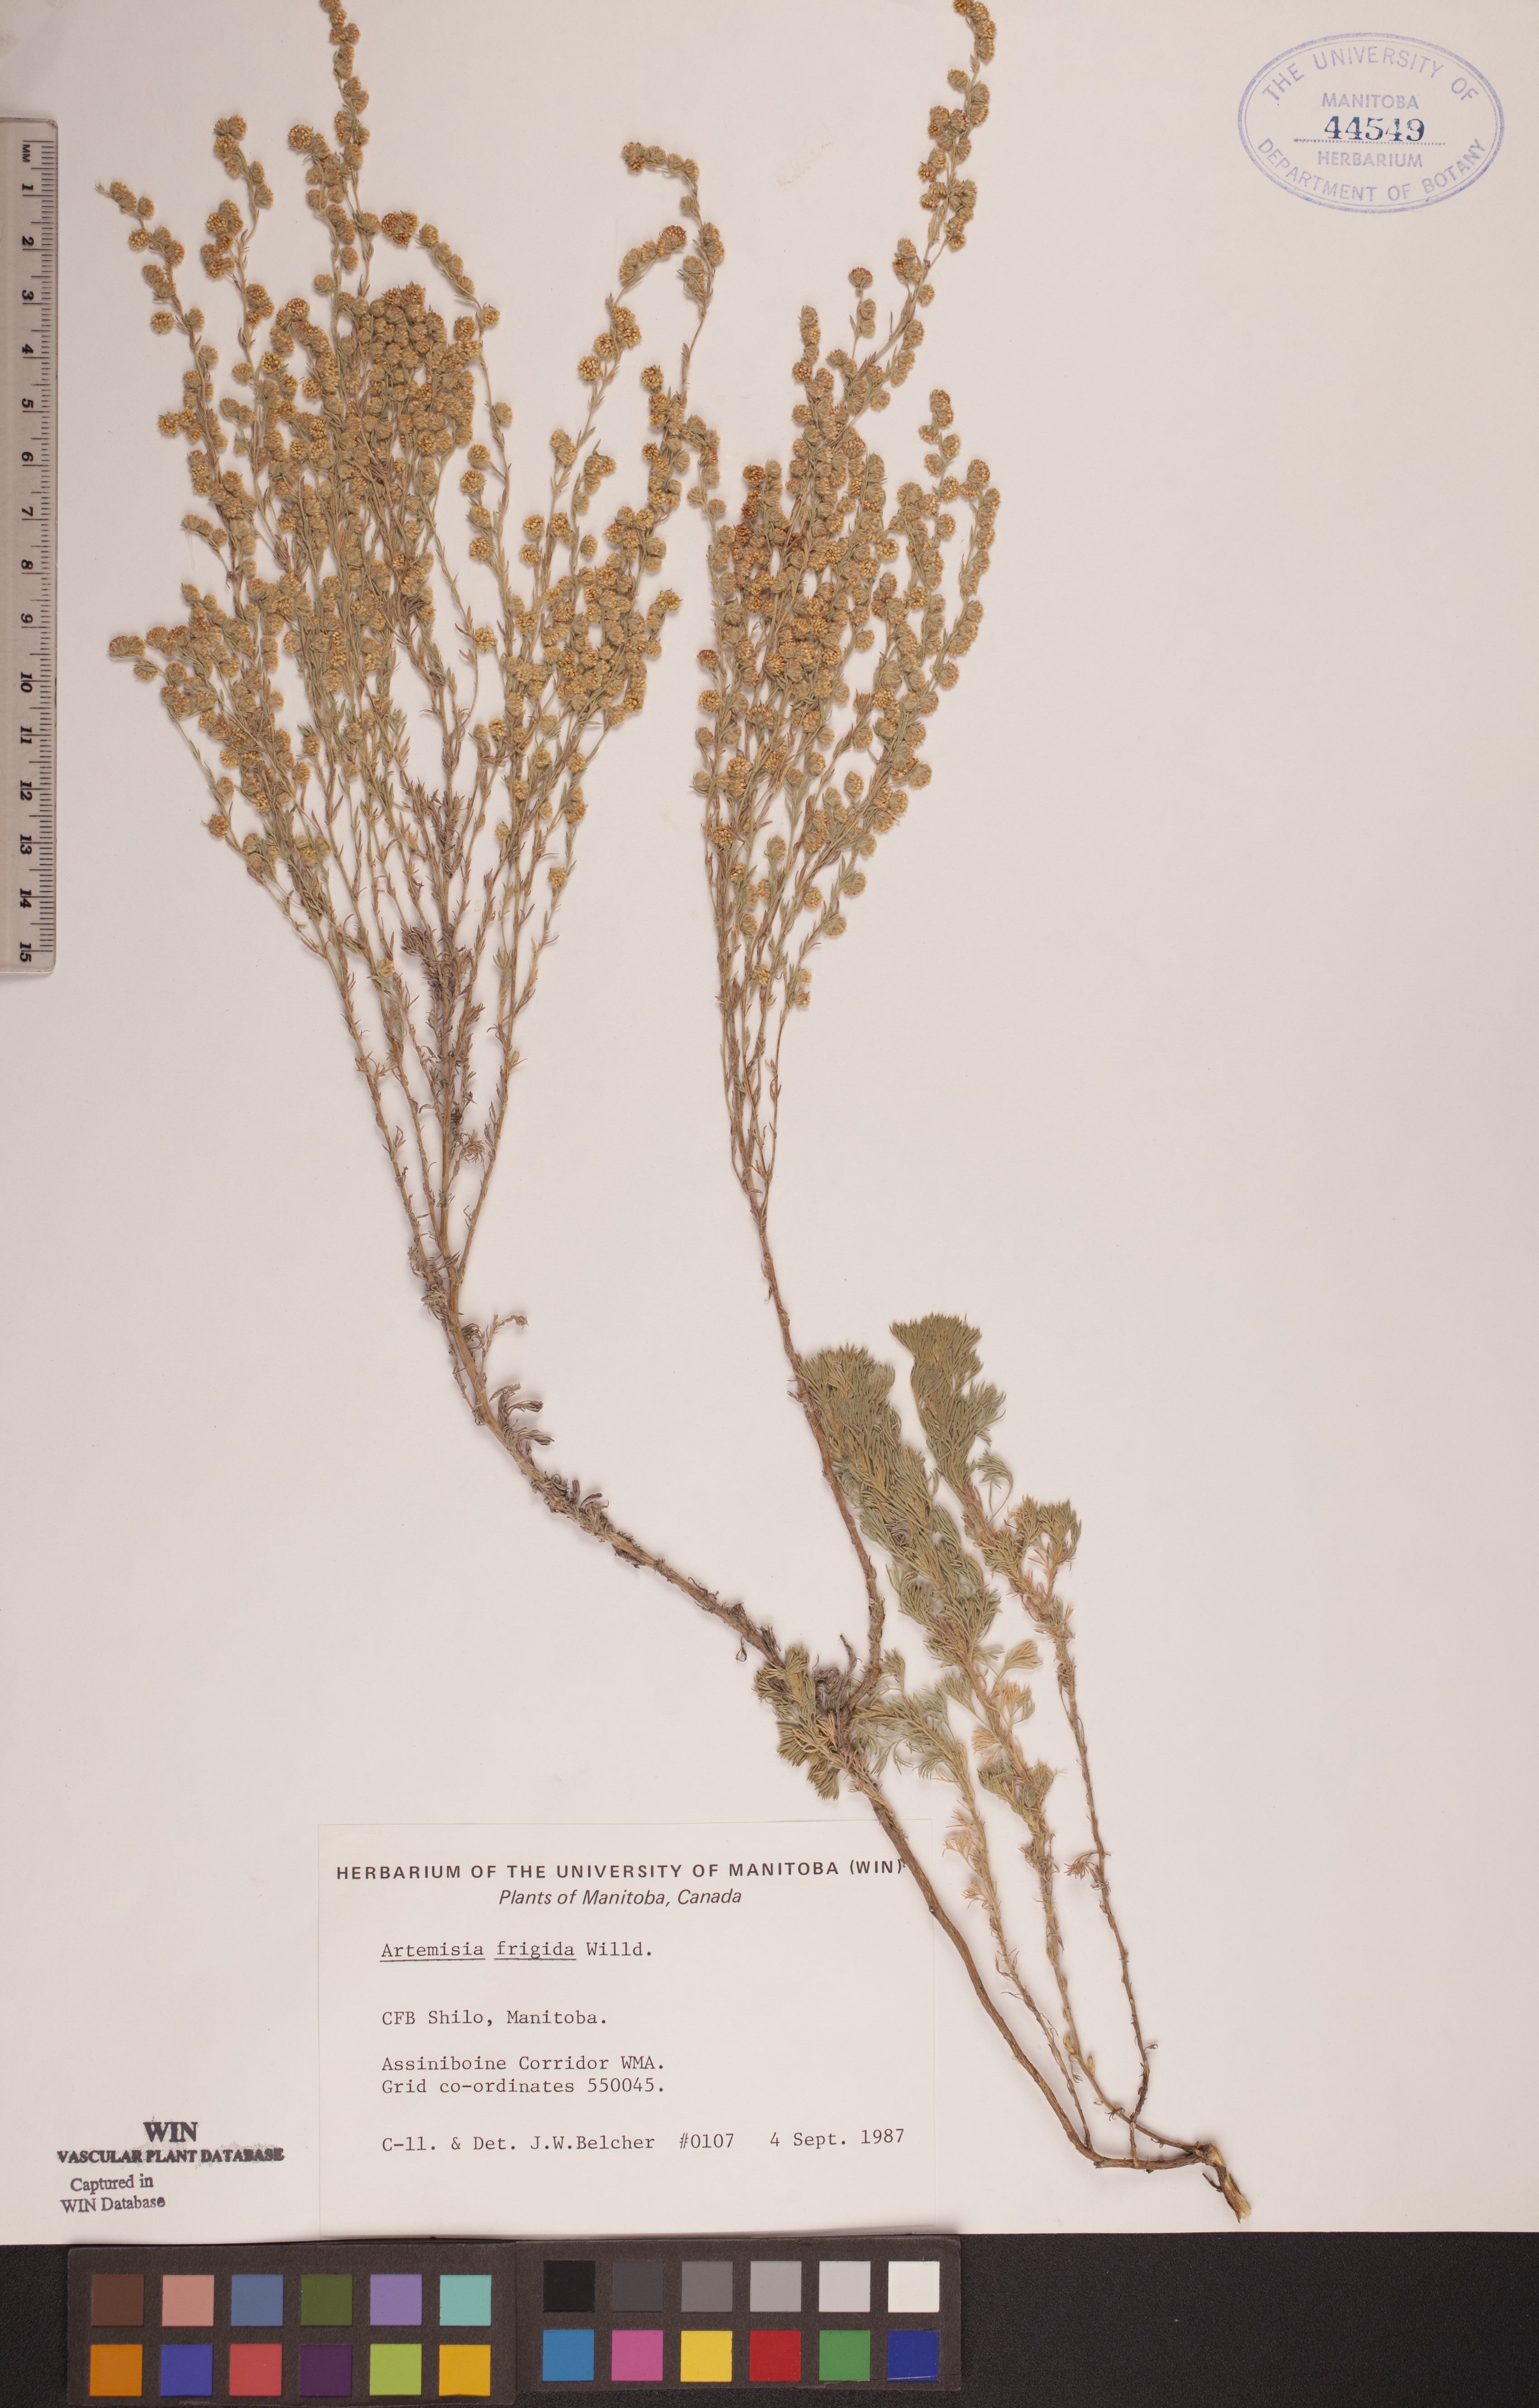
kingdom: Plantae
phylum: Tracheophyta
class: Magnoliopsida
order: Asterales
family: Asteraceae
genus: Artemisia
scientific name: Artemisia frigida
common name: Prairie sagewort
